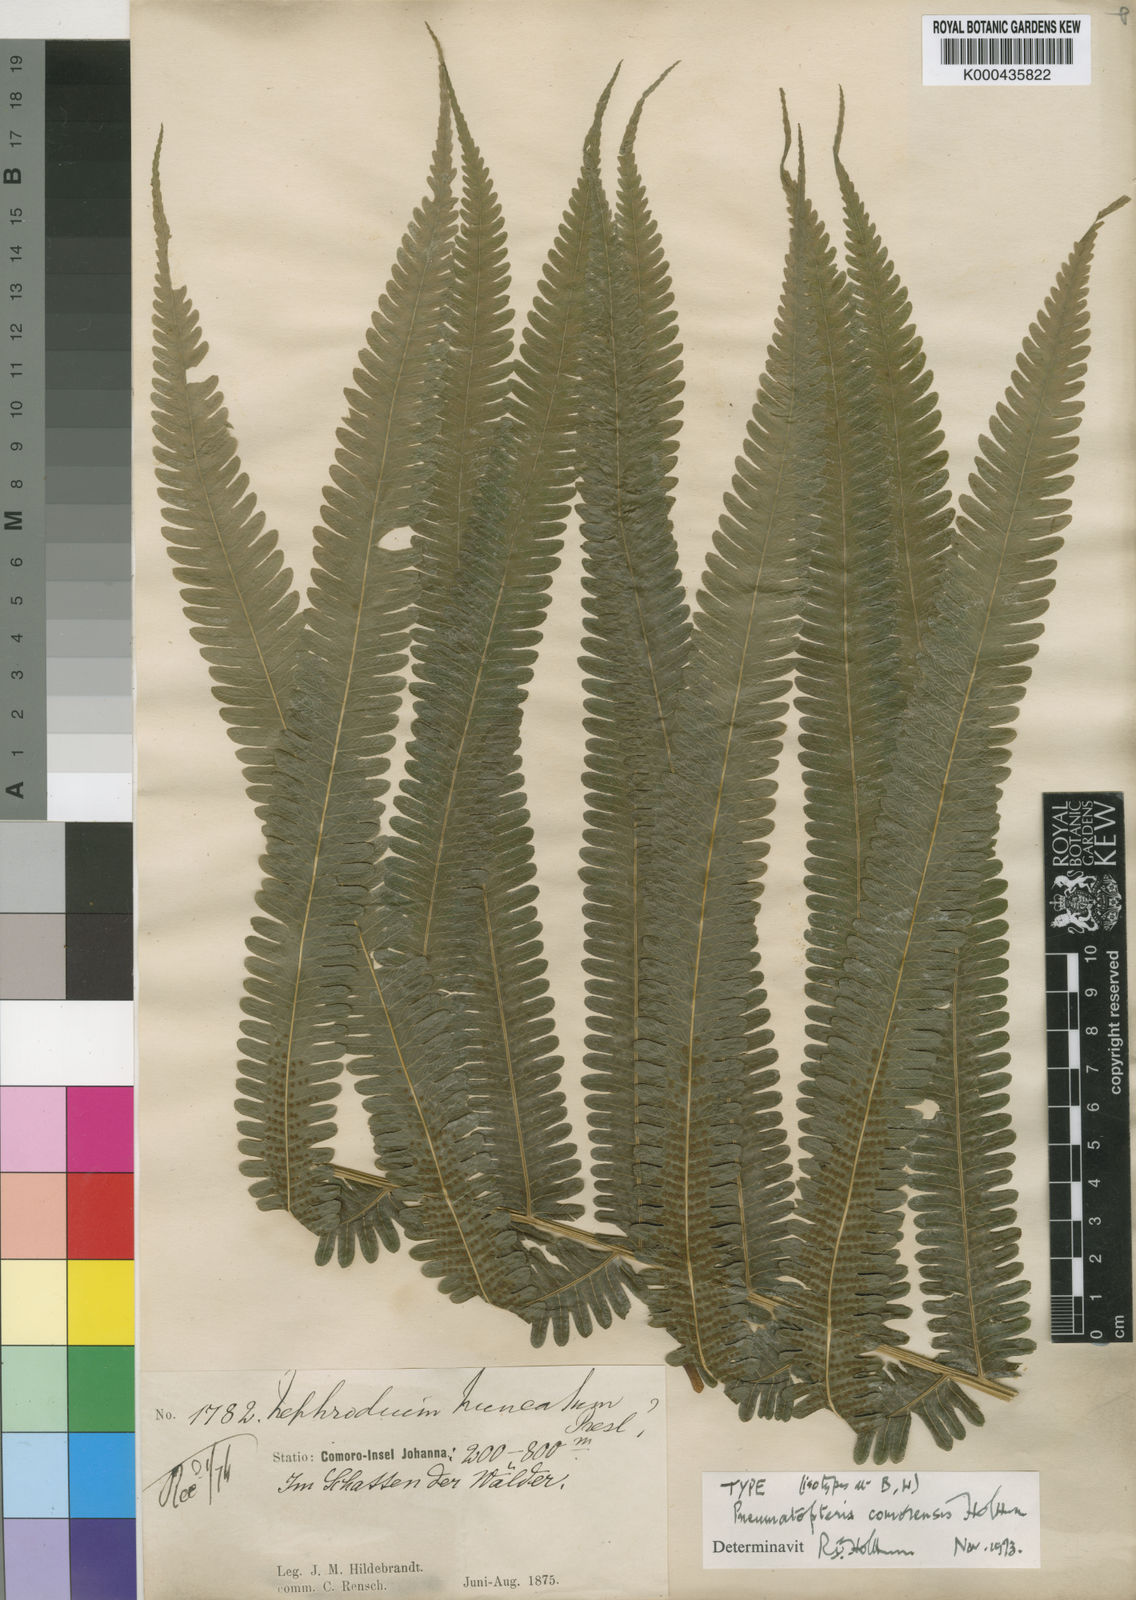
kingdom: Plantae
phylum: Tracheophyta
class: Polypodiopsida
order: Polypodiales
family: Thelypteridaceae
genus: Pneumatopteris
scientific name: Pneumatopteris comorensis
